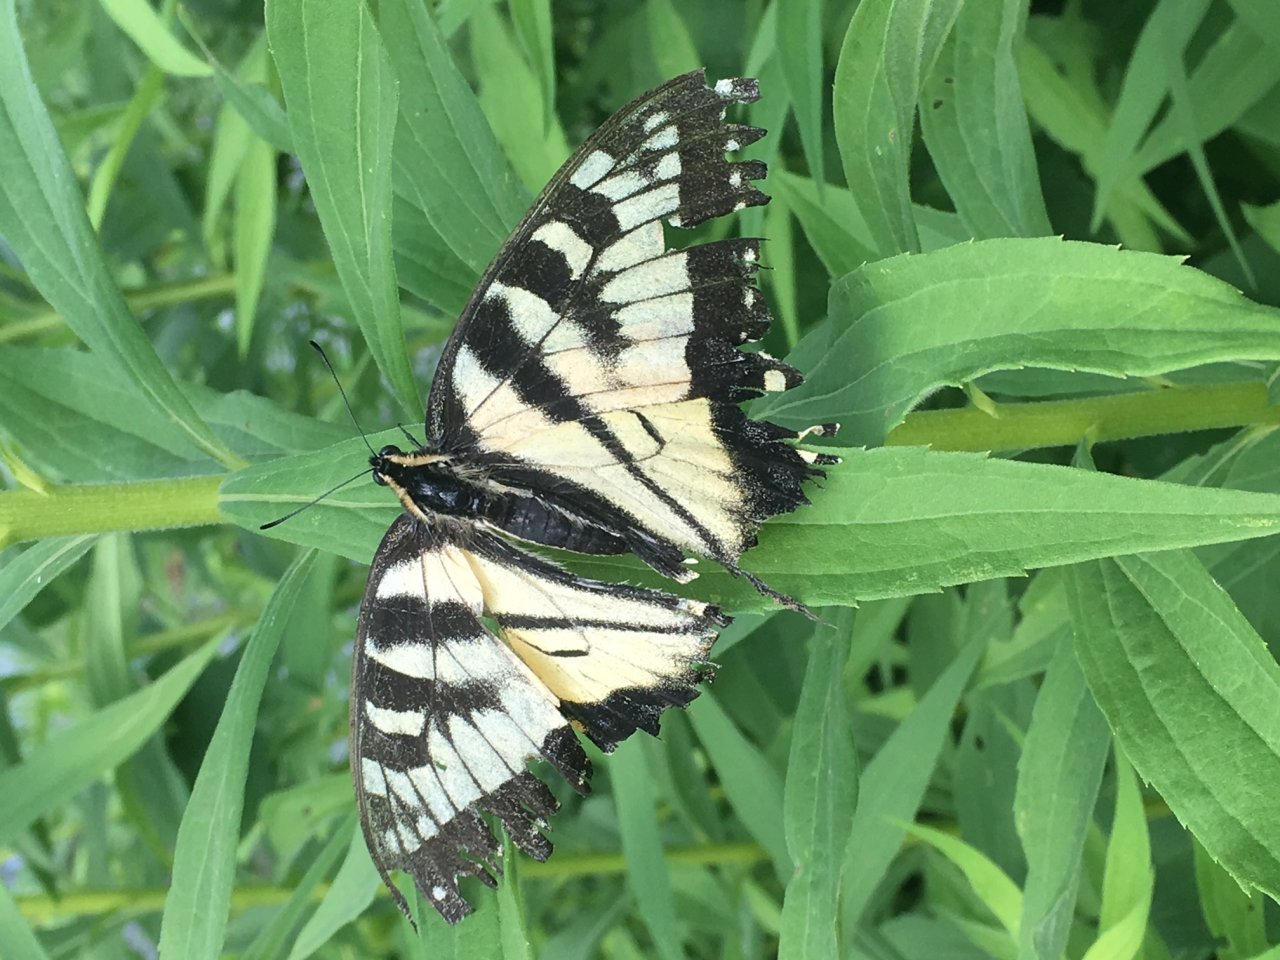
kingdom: Animalia
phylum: Arthropoda
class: Insecta
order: Lepidoptera
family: Papilionidae
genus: Pterourus
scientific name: Pterourus
